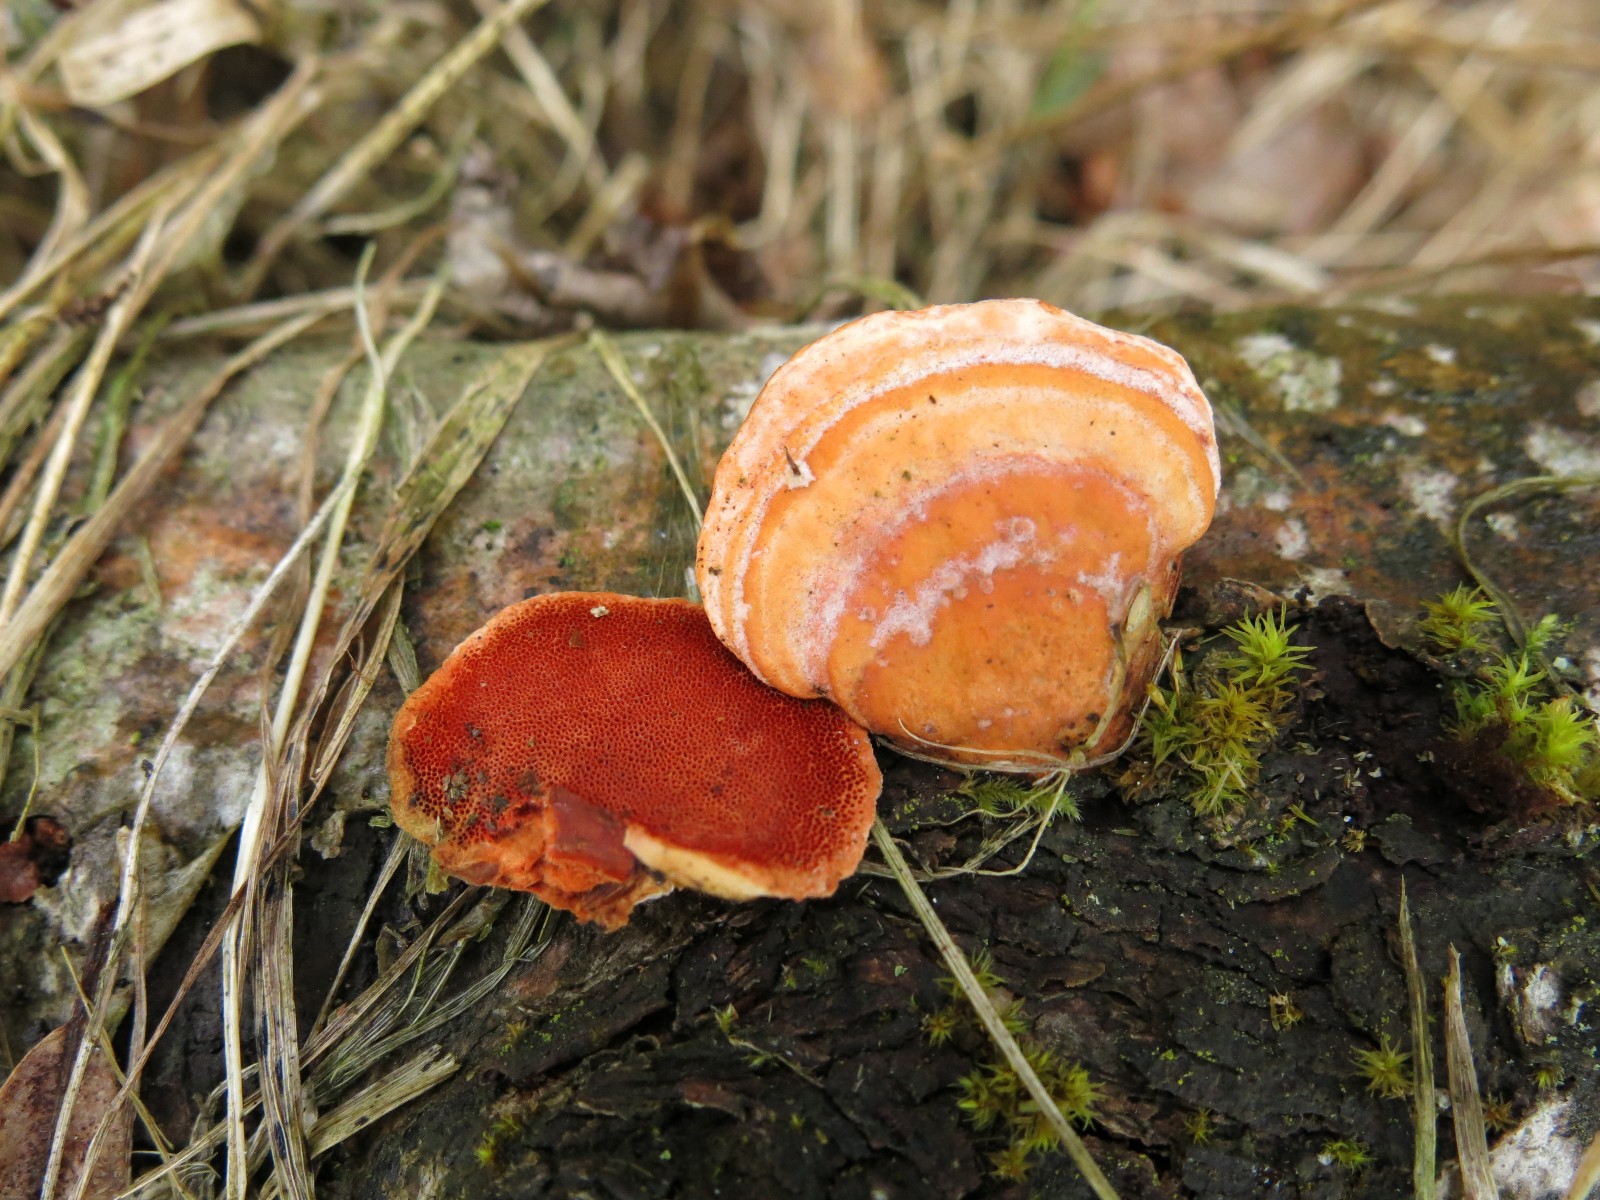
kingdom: Fungi
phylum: Basidiomycota
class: Agaricomycetes
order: Polyporales
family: Polyporaceae
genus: Trametes
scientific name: Trametes cinnabarina
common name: cinnoberporesvamp
